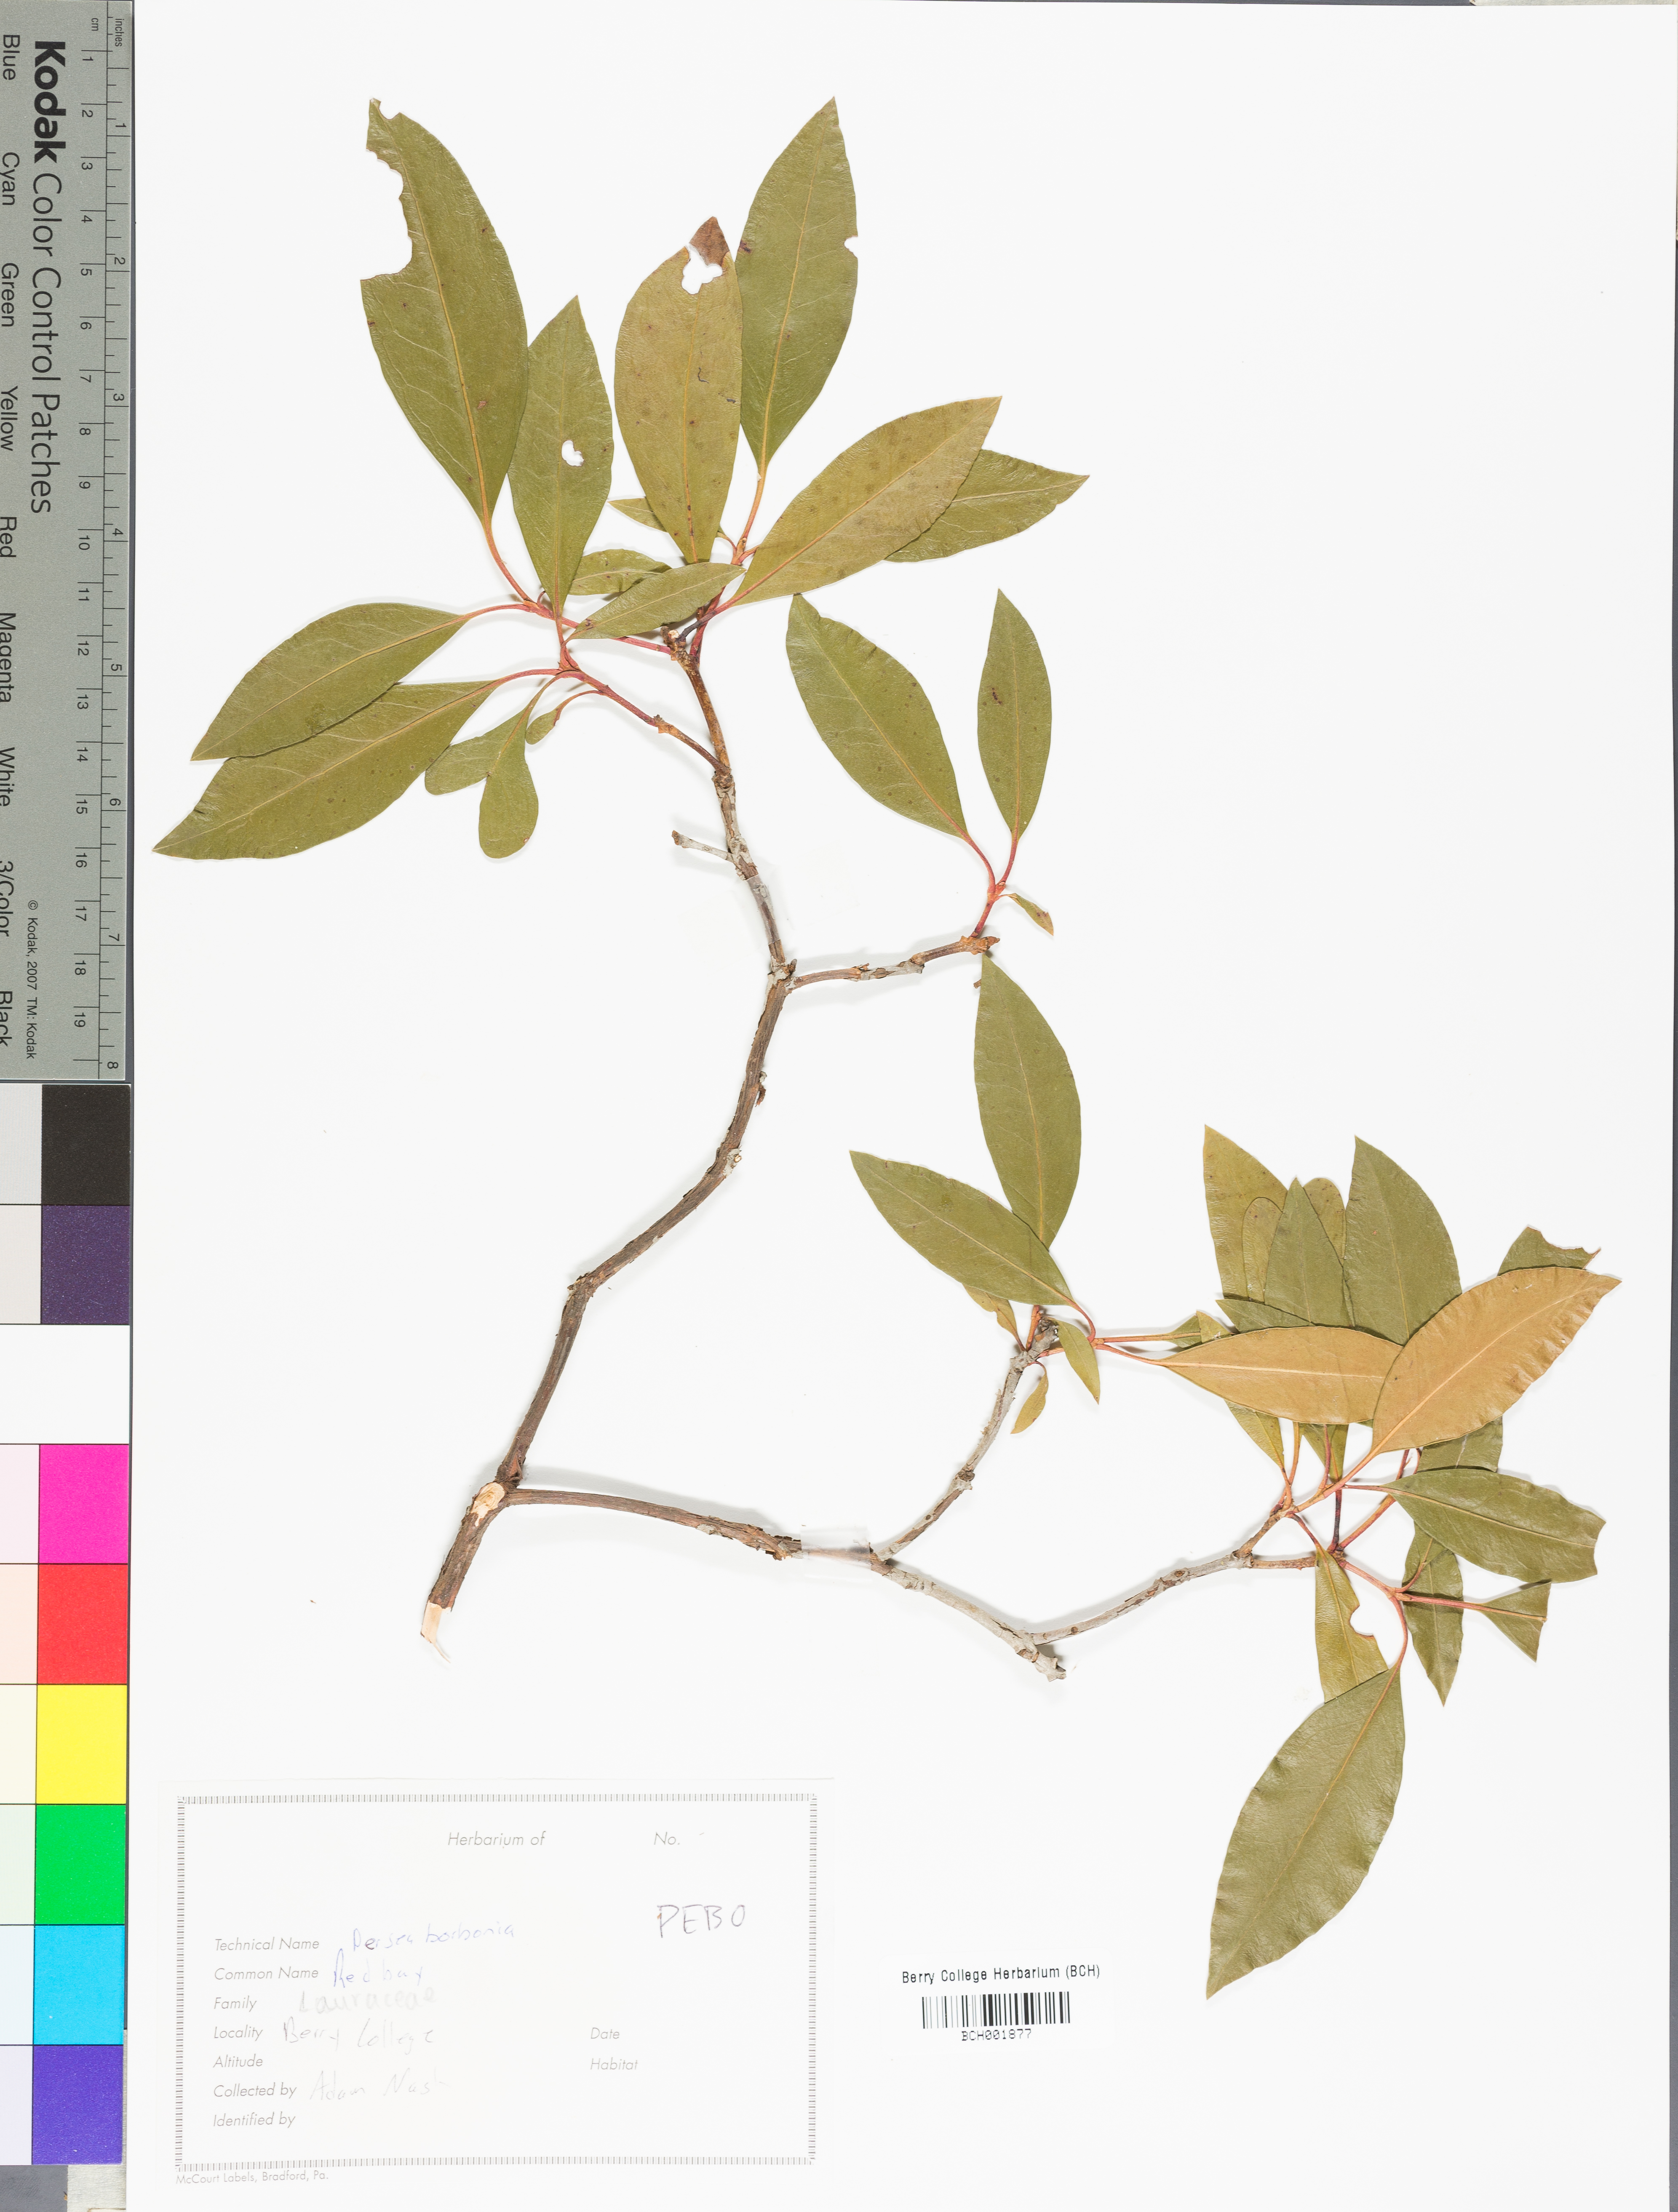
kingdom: Plantae
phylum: Tracheophyta
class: Magnoliopsida
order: Laurales
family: Lauraceae
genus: Persea
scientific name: Persea borbonia
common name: Redbay
